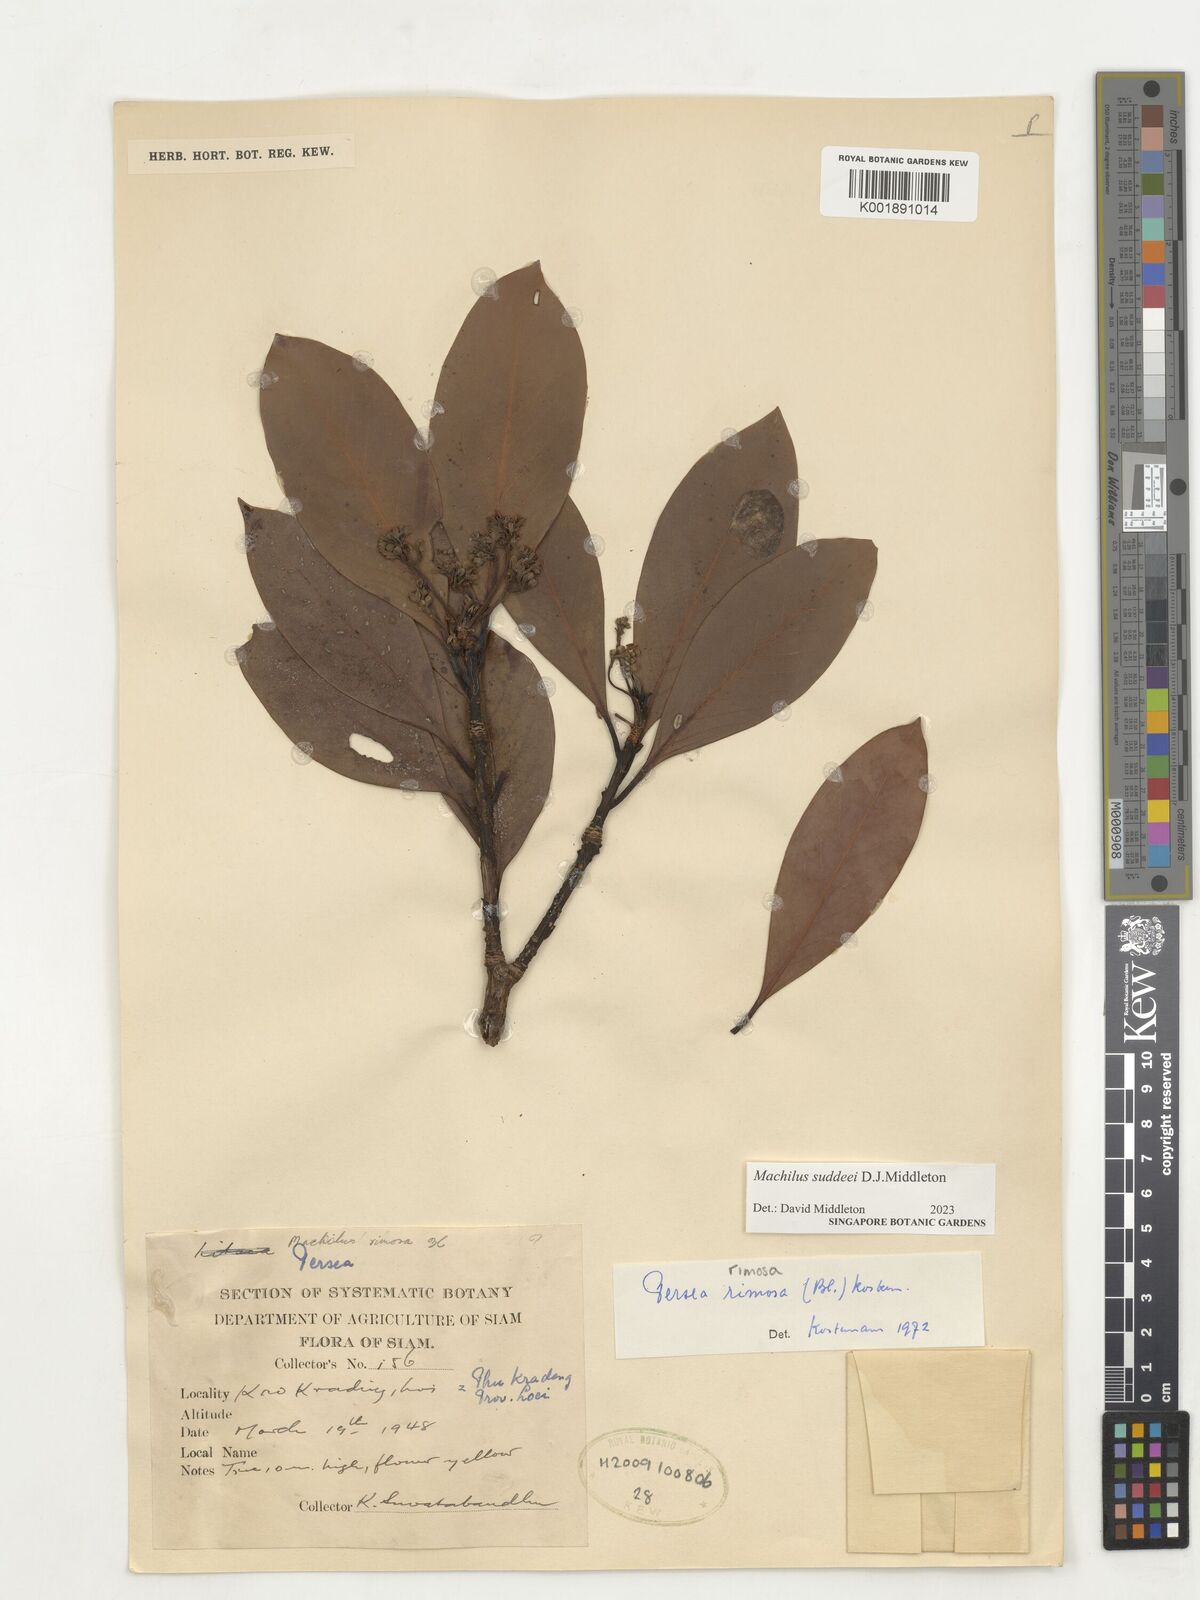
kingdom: Plantae
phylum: Tracheophyta
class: Magnoliopsida
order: Laurales
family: Lauraceae
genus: Machilus
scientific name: Machilus
